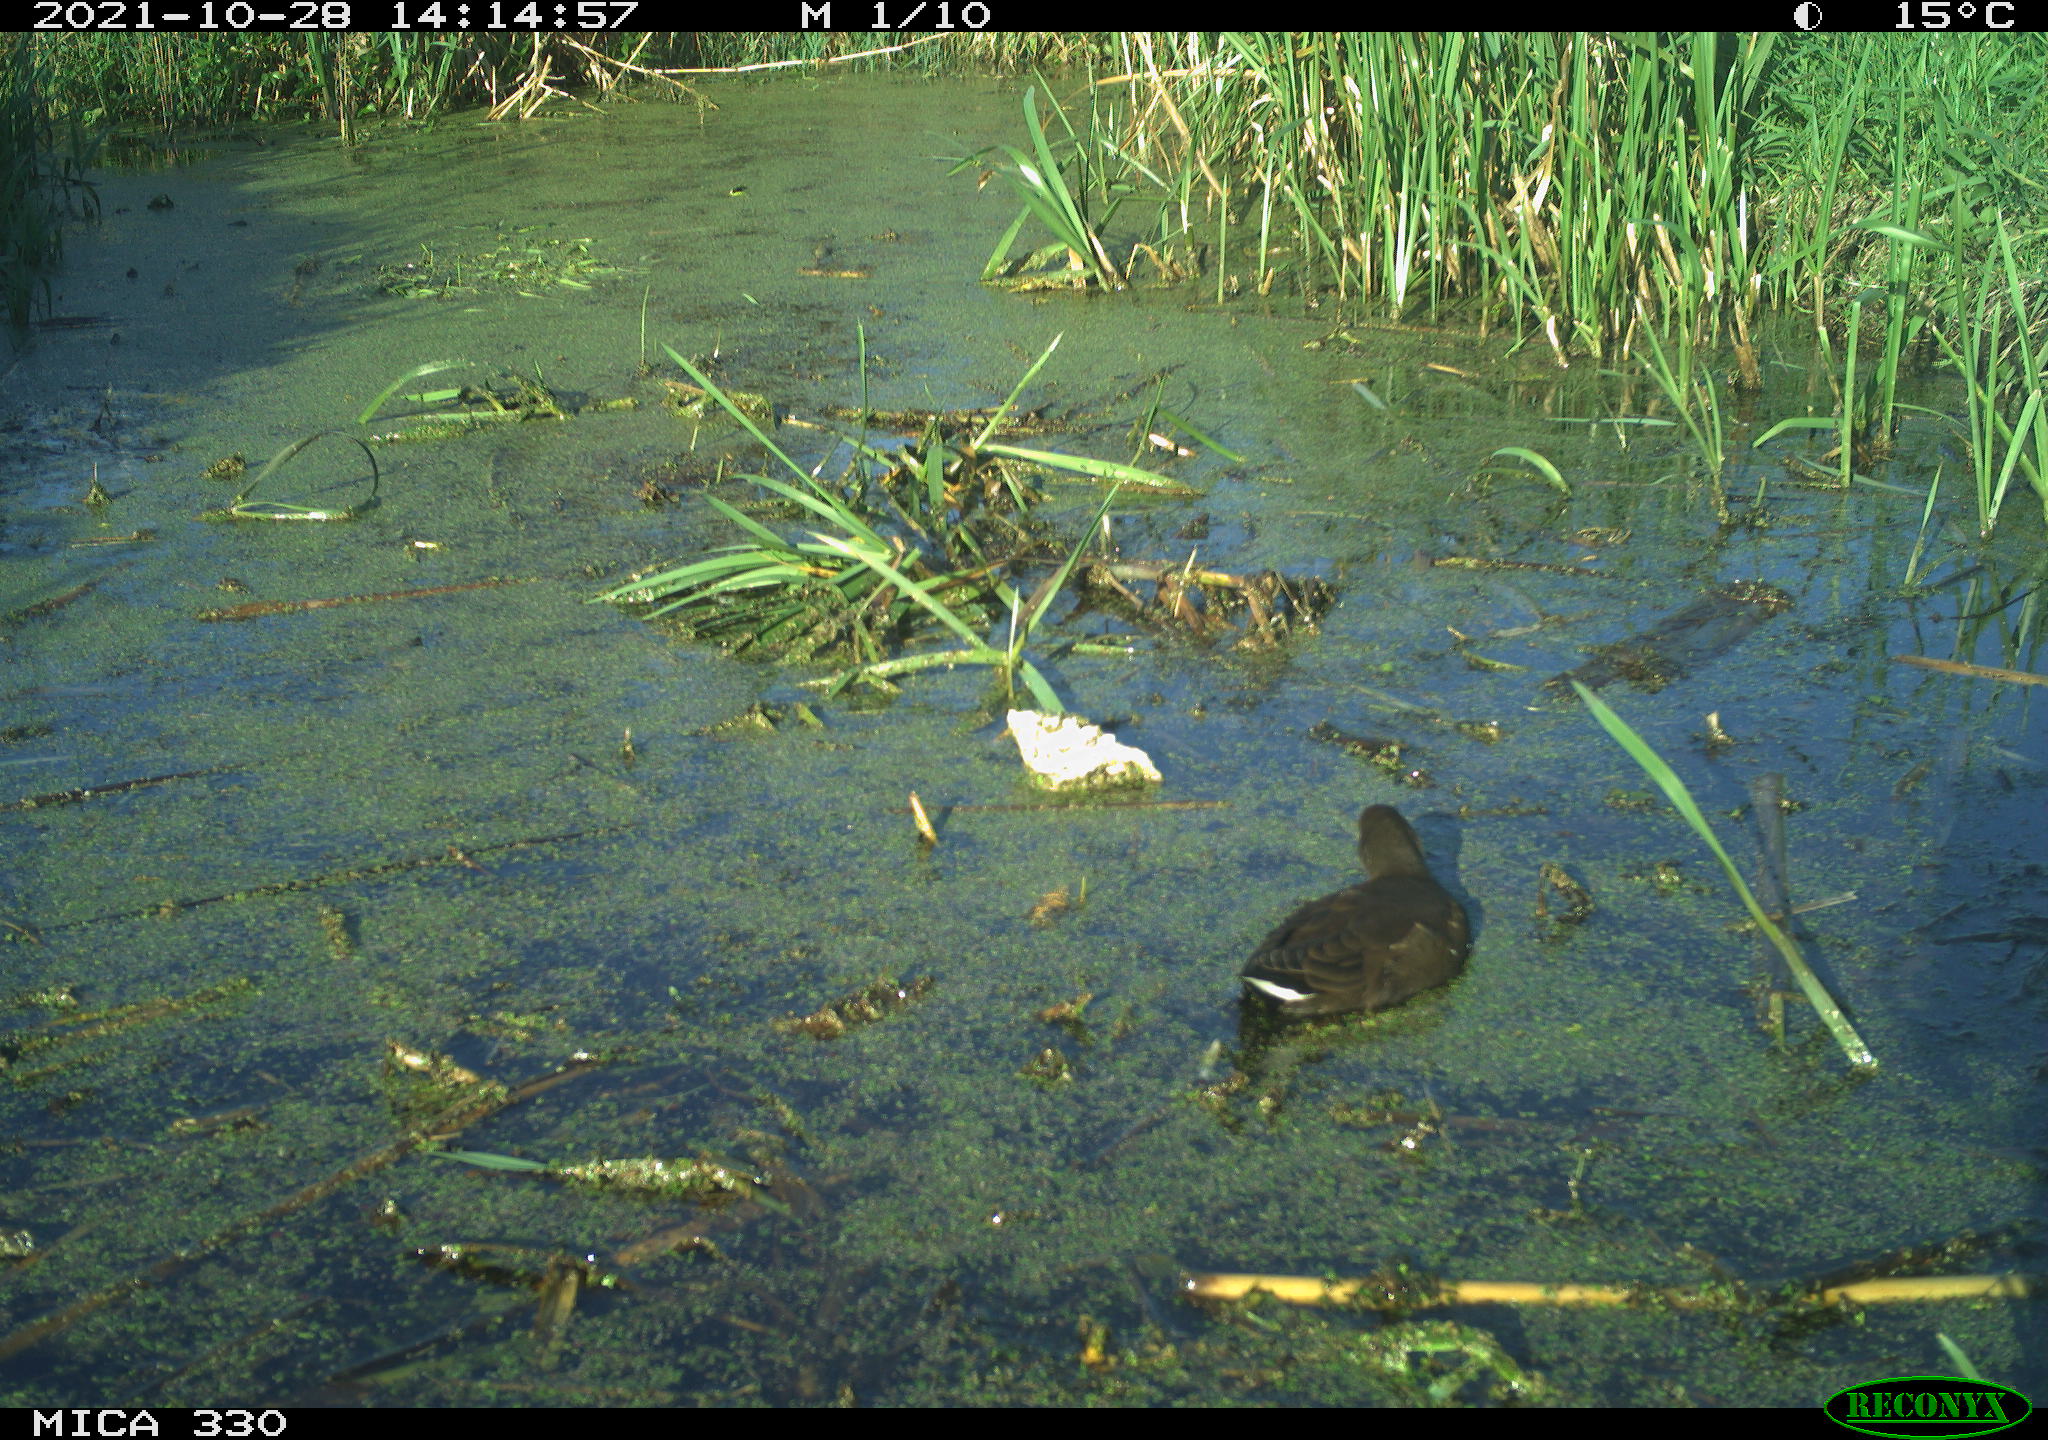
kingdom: Animalia
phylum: Chordata
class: Aves
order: Gruiformes
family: Rallidae
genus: Gallinula
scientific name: Gallinula chloropus
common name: Common moorhen
